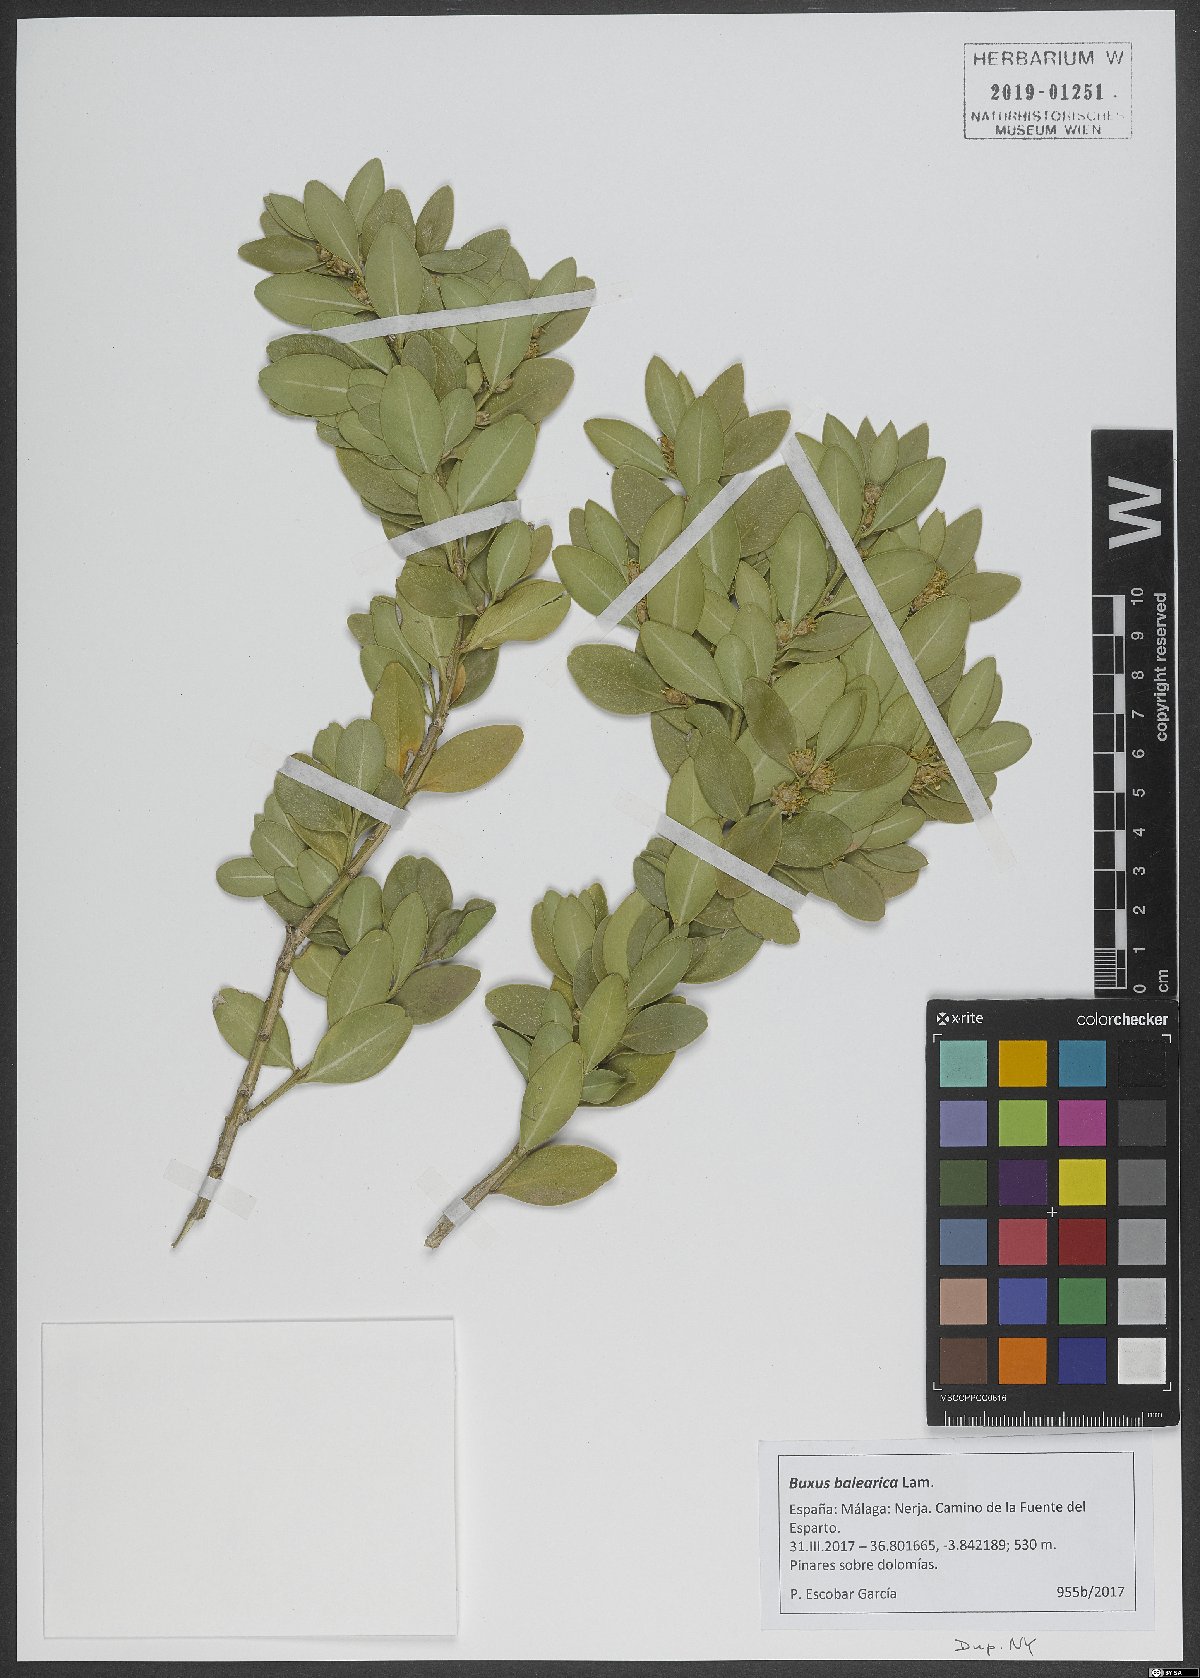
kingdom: Plantae
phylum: Tracheophyta
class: Magnoliopsida
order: Buxales
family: Buxaceae
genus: Buxus
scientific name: Buxus balearica
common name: Balearic box
